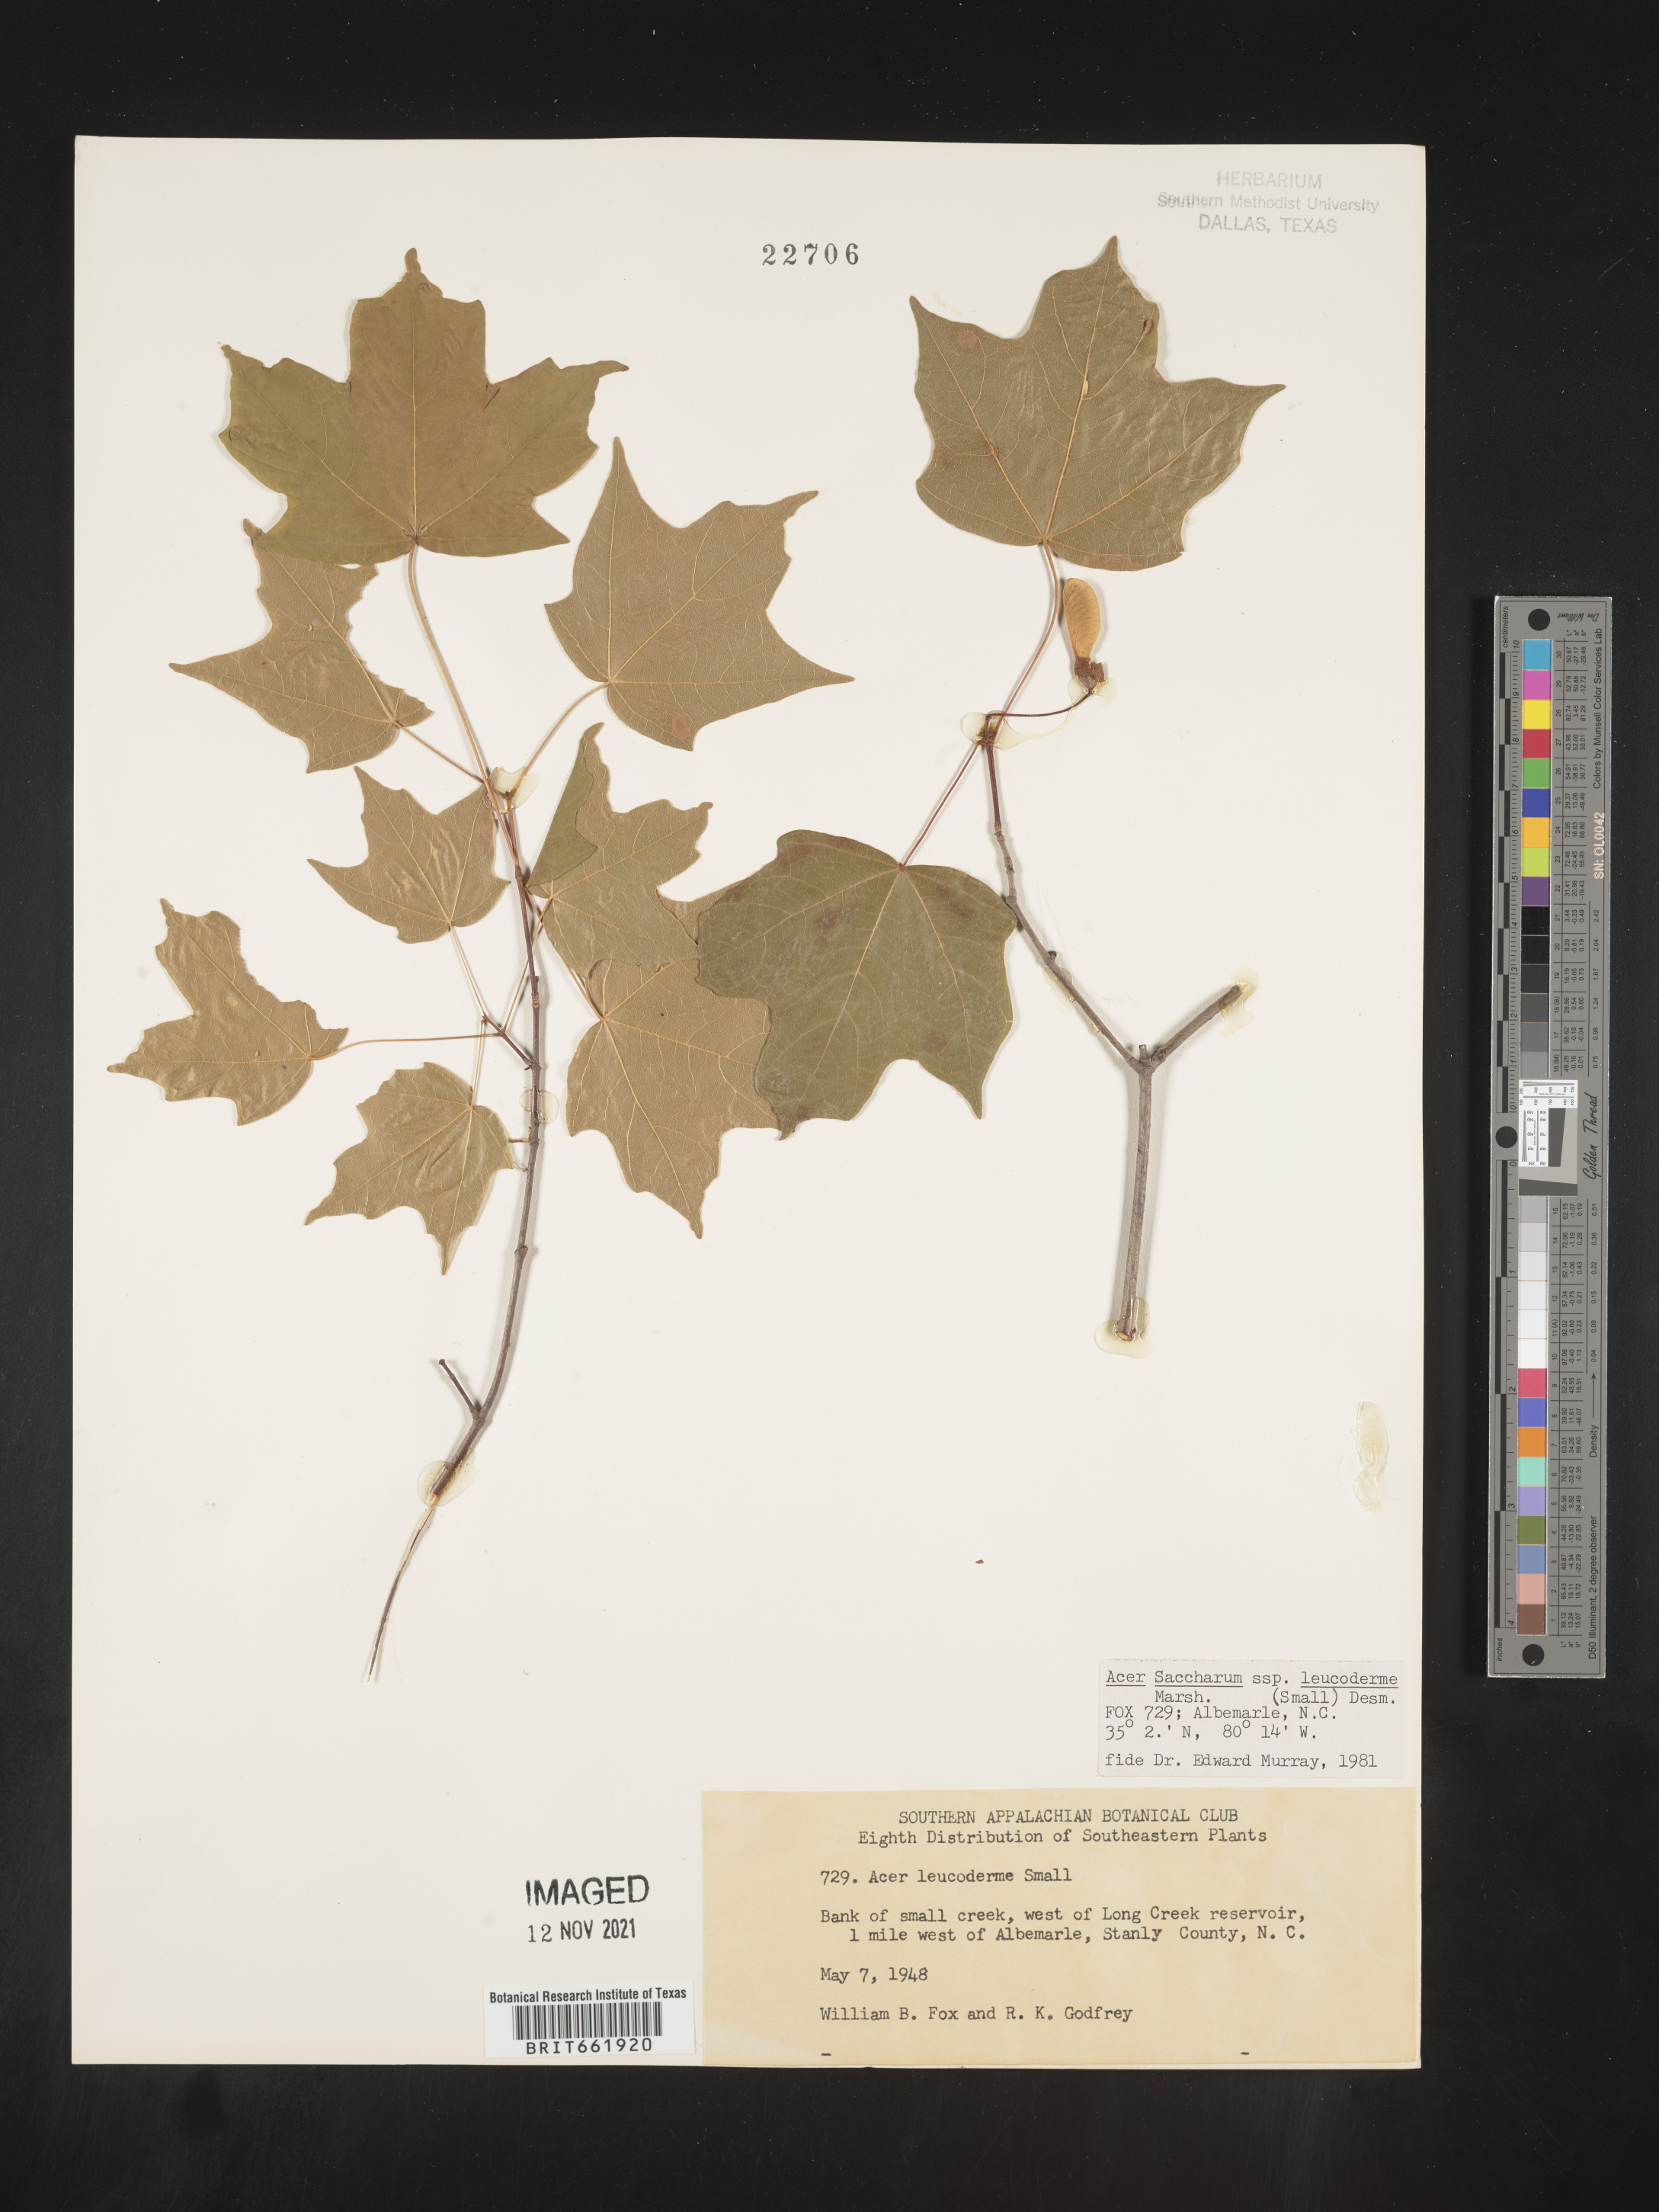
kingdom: Plantae
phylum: Tracheophyta
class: Magnoliopsida
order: Sapindales
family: Sapindaceae
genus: Acer
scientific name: Acer leucoderme
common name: Chalk maple
